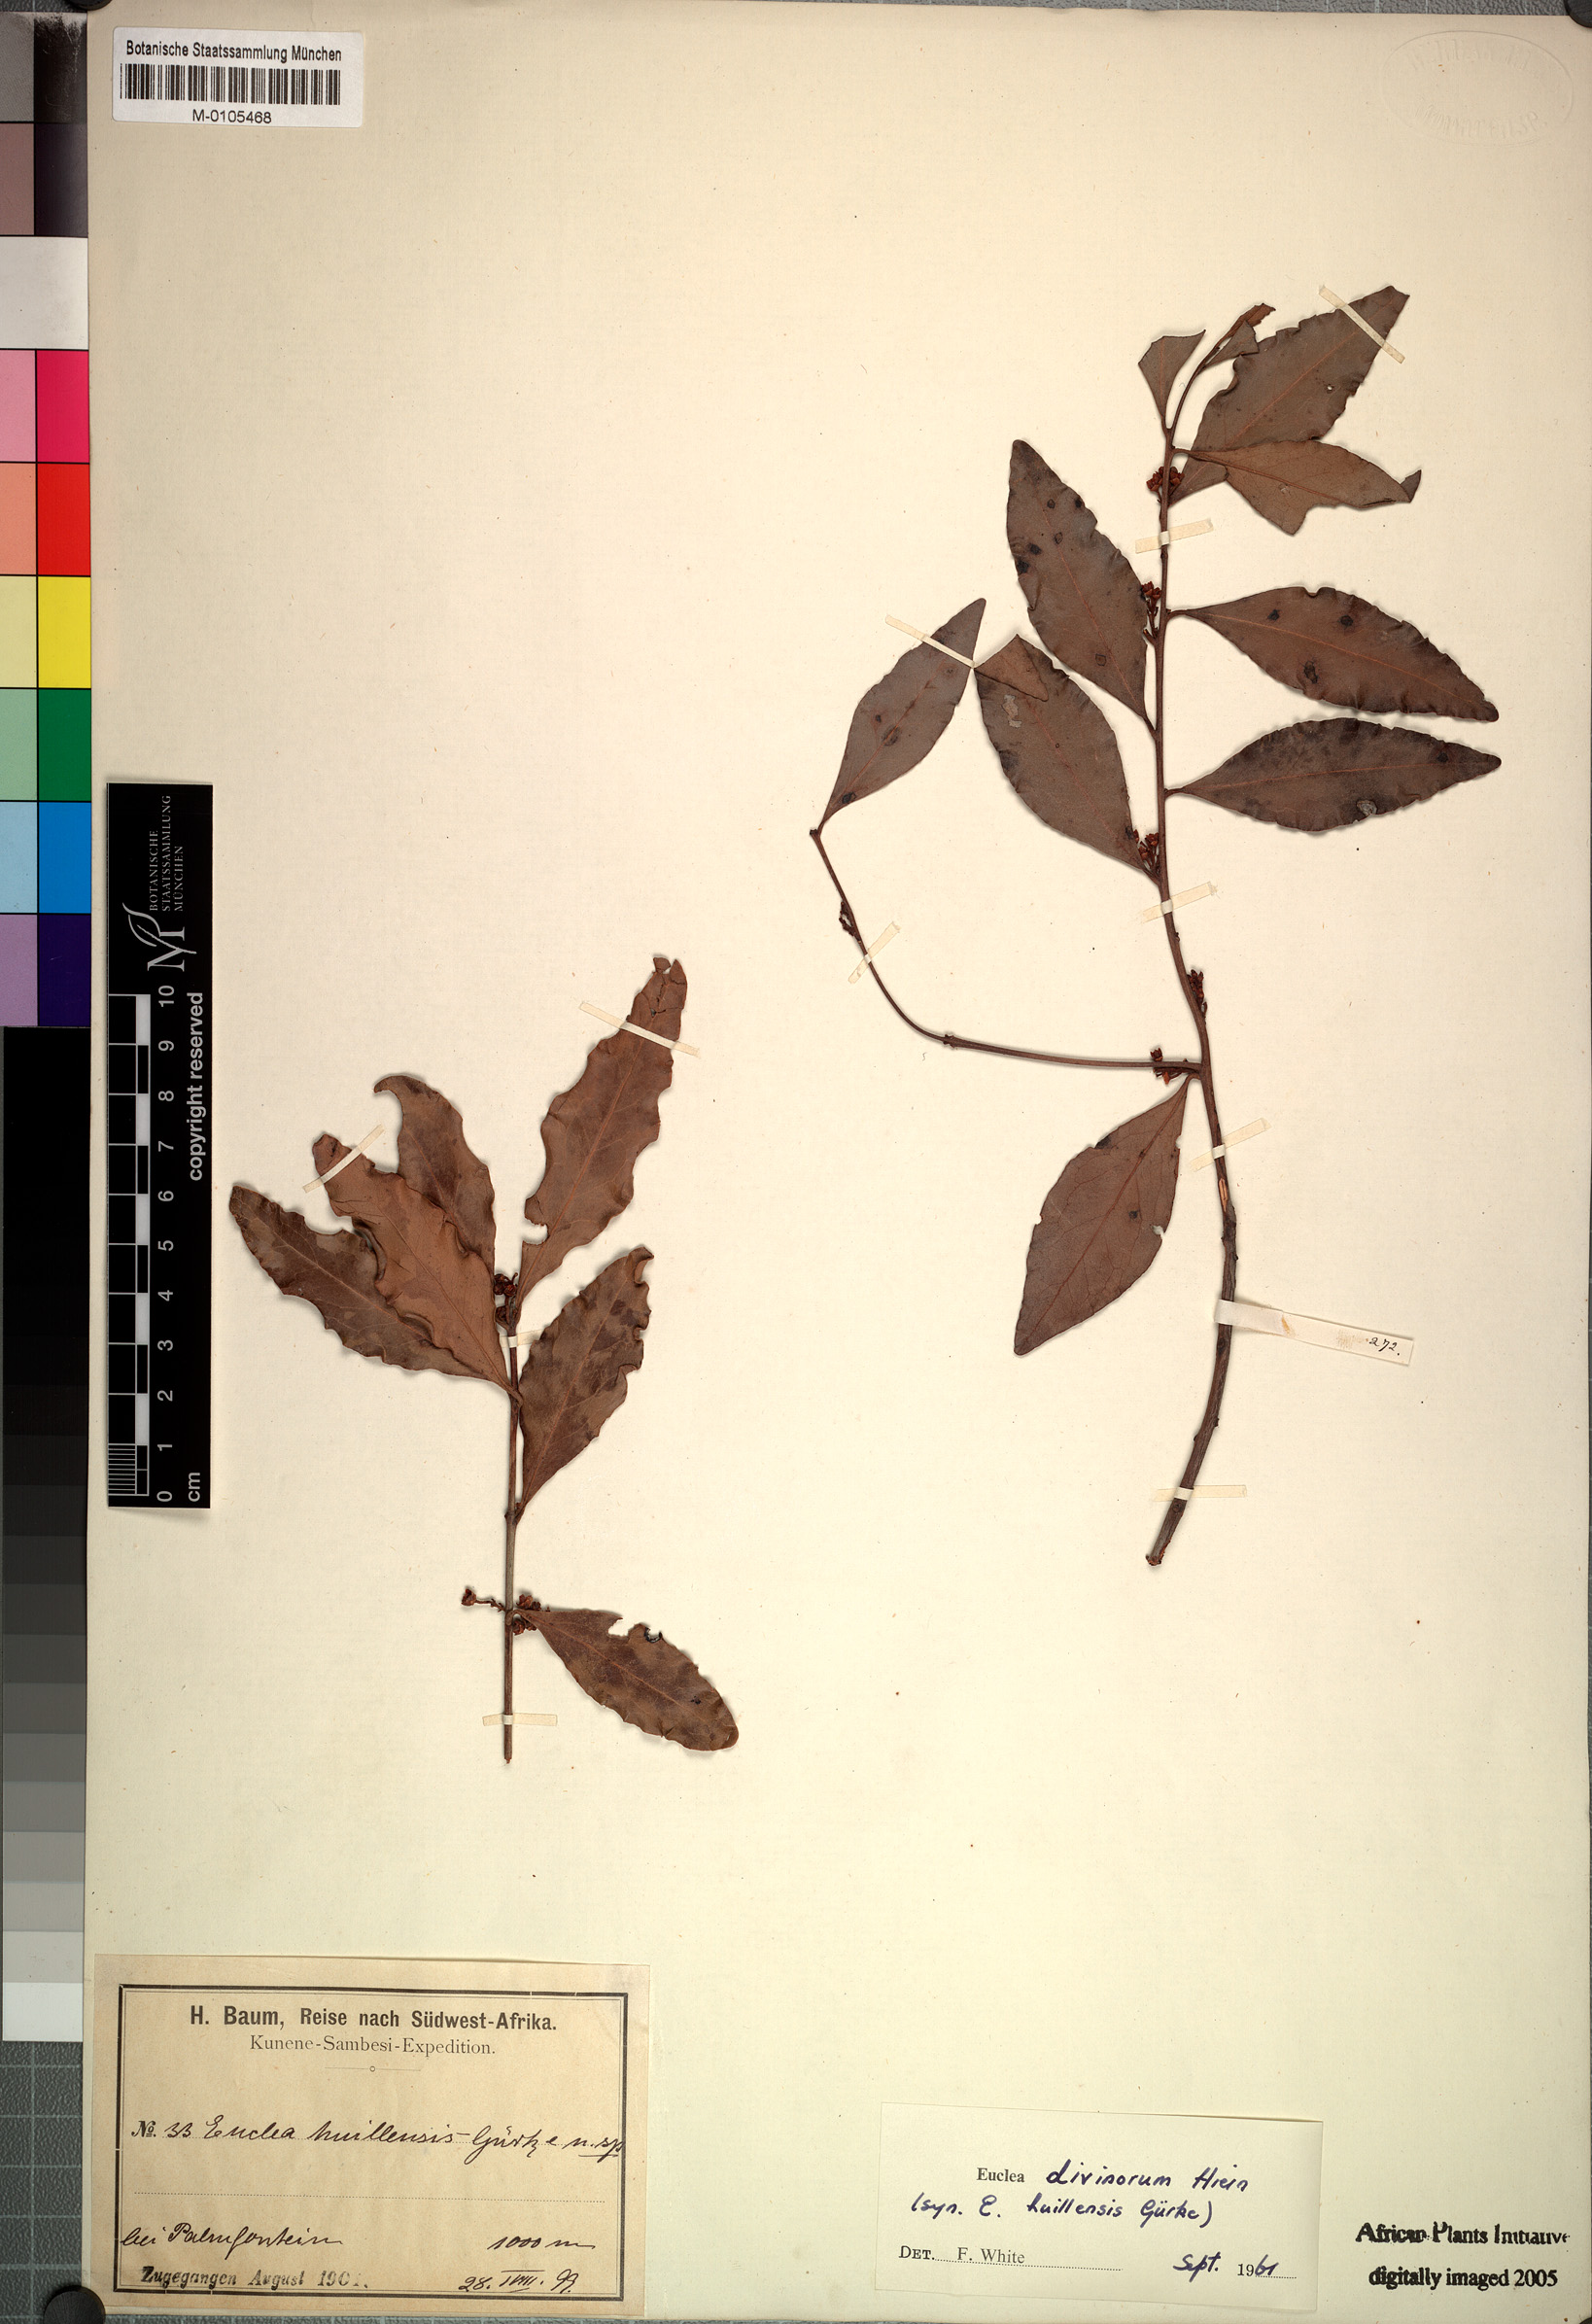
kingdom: Plantae
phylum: Tracheophyta
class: Magnoliopsida
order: Ericales
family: Ebenaceae
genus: Euclea
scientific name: Euclea divinorum
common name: Diamond-leaved euclea
